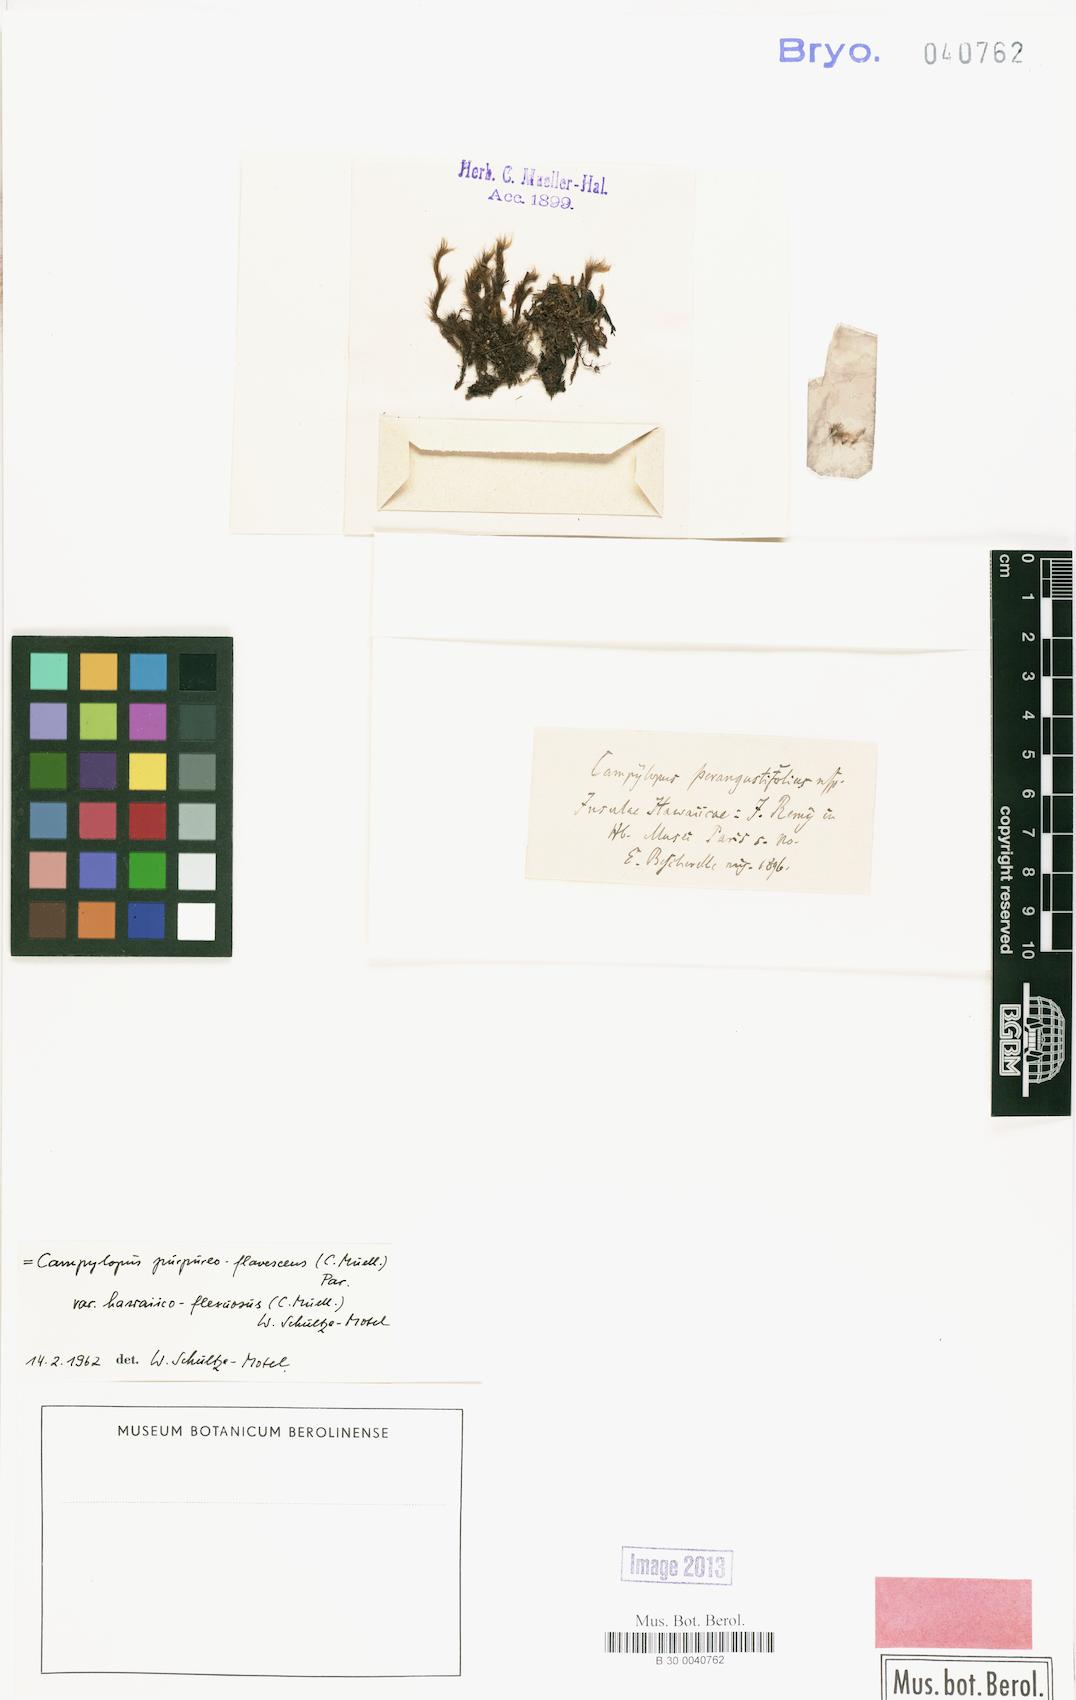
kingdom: Plantae
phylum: Bryophyta
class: Bryopsida
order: Dicranales
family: Leucobryaceae
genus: Campylopus
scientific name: Campylopus hawaiicus
